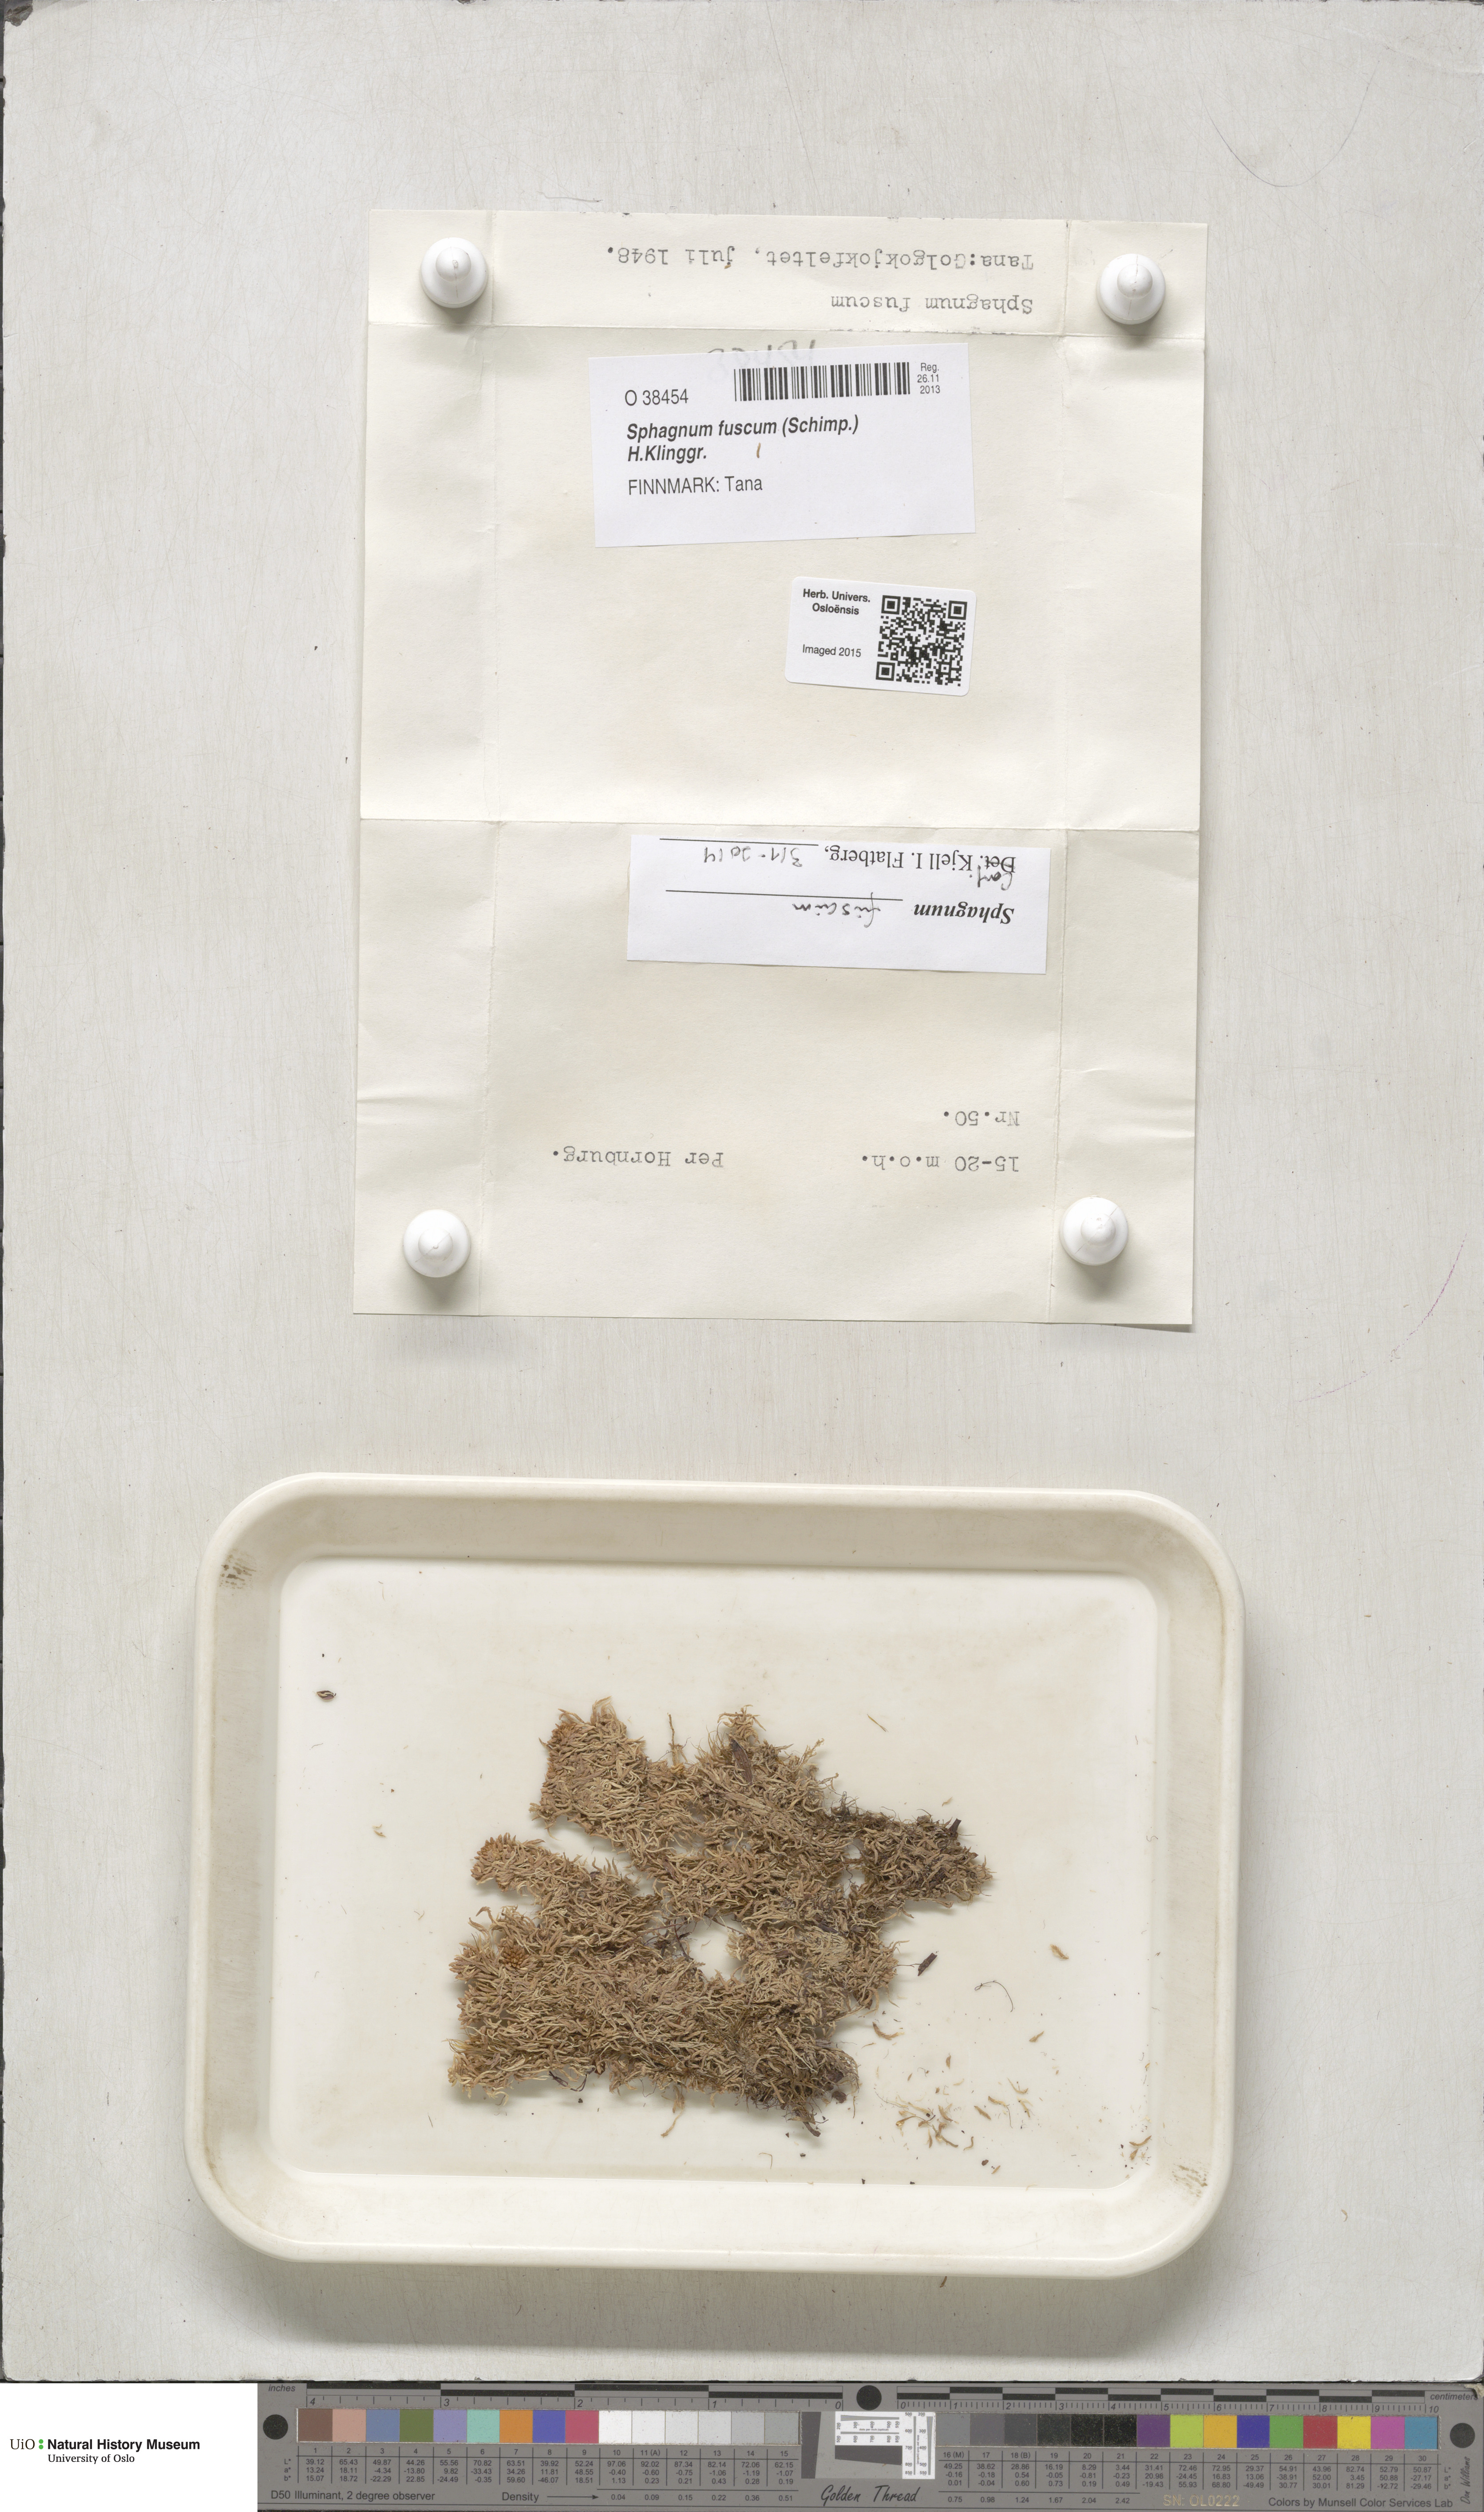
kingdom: Plantae
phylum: Bryophyta
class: Sphagnopsida
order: Sphagnales
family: Sphagnaceae
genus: Sphagnum
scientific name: Sphagnum fuscum
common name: Brown peat moss
